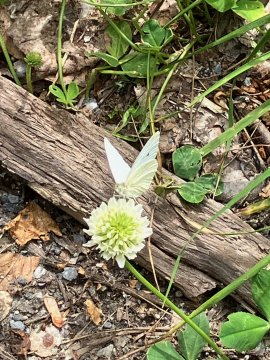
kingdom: Animalia
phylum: Arthropoda
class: Insecta
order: Lepidoptera
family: Pieridae
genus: Pieris
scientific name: Pieris rapae
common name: Cabbage White
